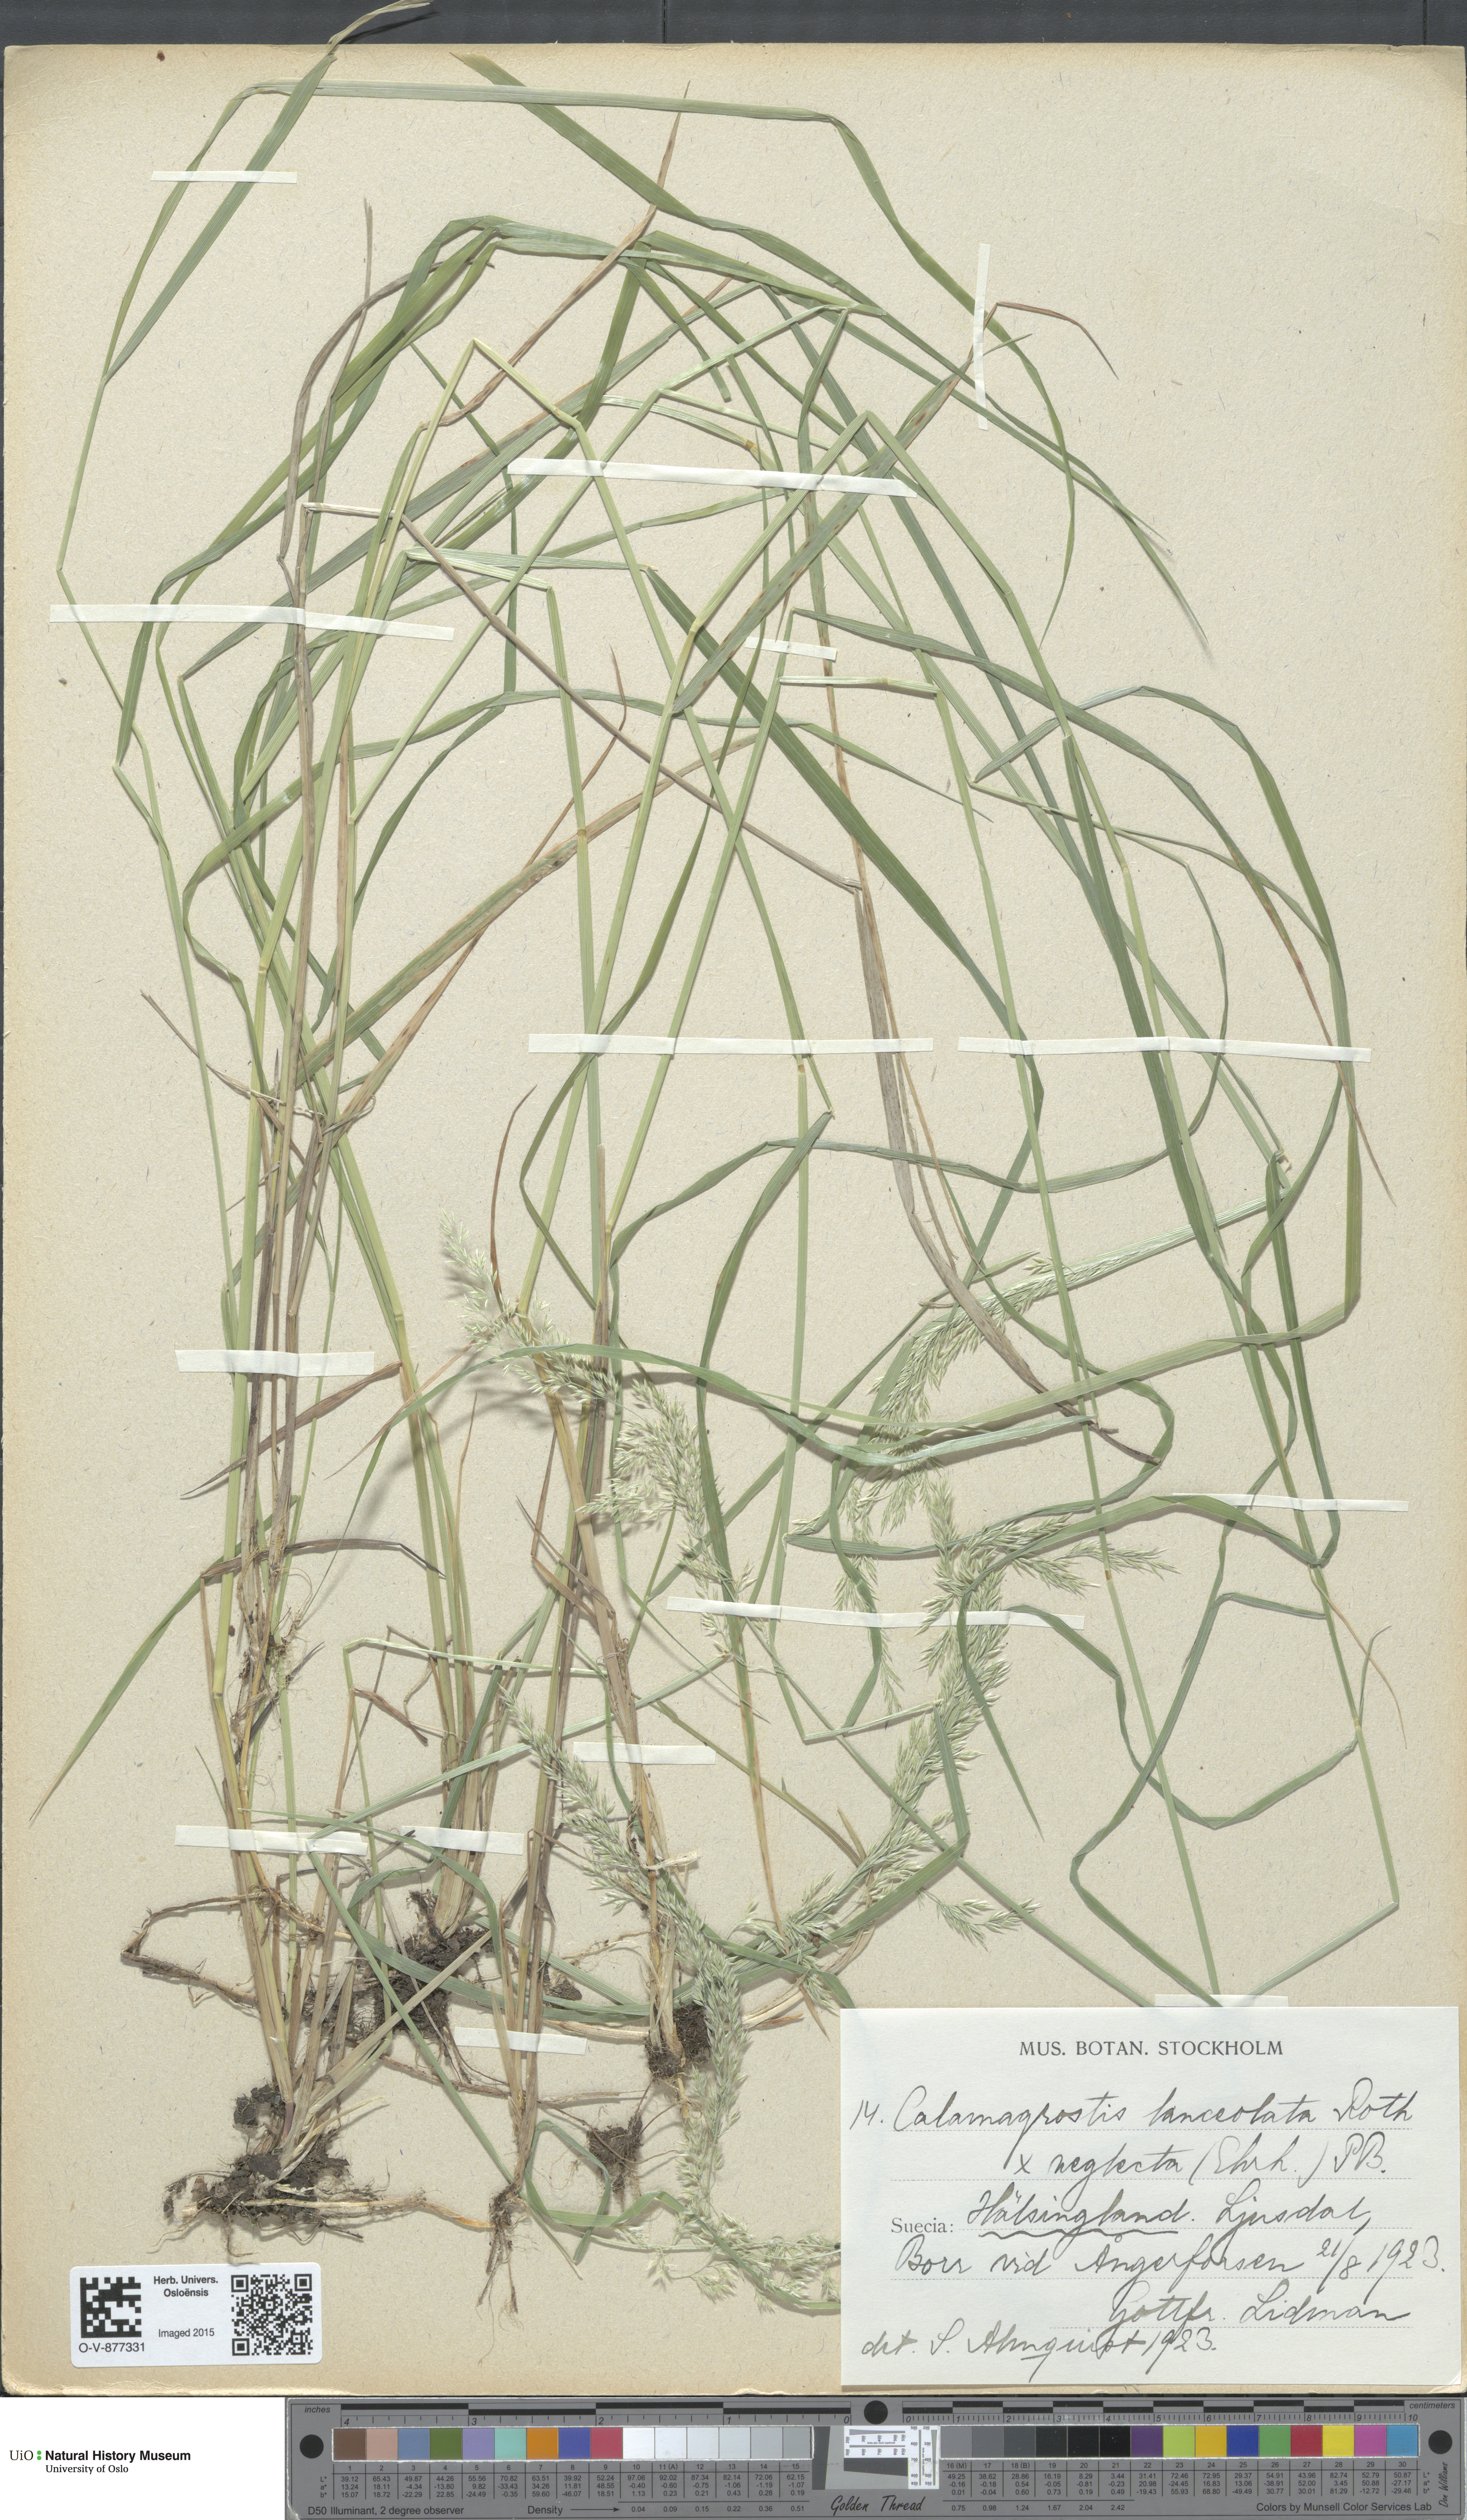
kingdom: Plantae
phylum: Tracheophyta
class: Liliopsida
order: Poales
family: Poaceae
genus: Calamagrostis
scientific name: Calamagrostis
